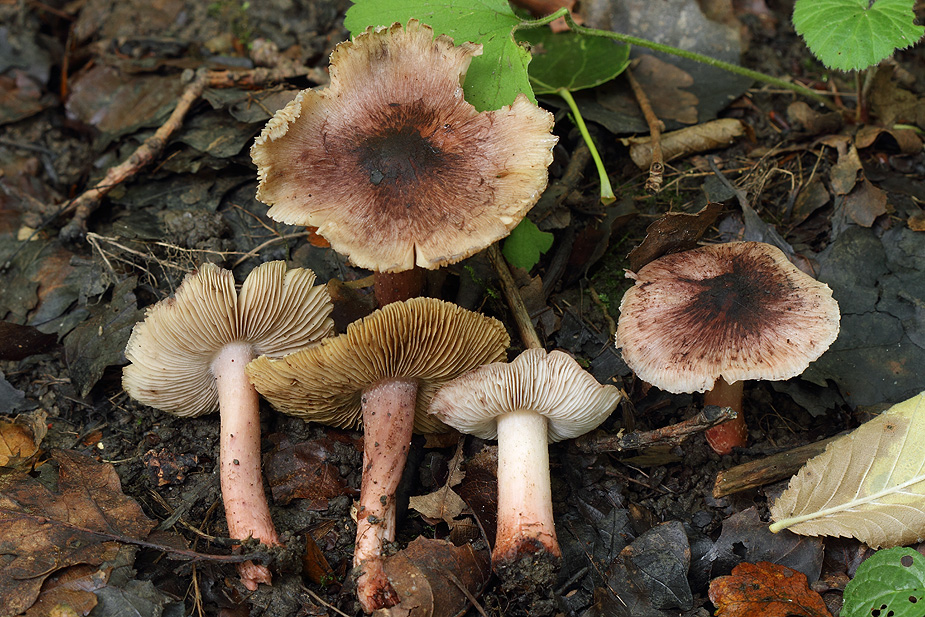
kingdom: Fungi
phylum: Basidiomycota
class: Agaricomycetes
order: Agaricales
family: Inocybaceae
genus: Inosperma
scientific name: Inosperma adaequatum
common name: vinrød trævlhat
